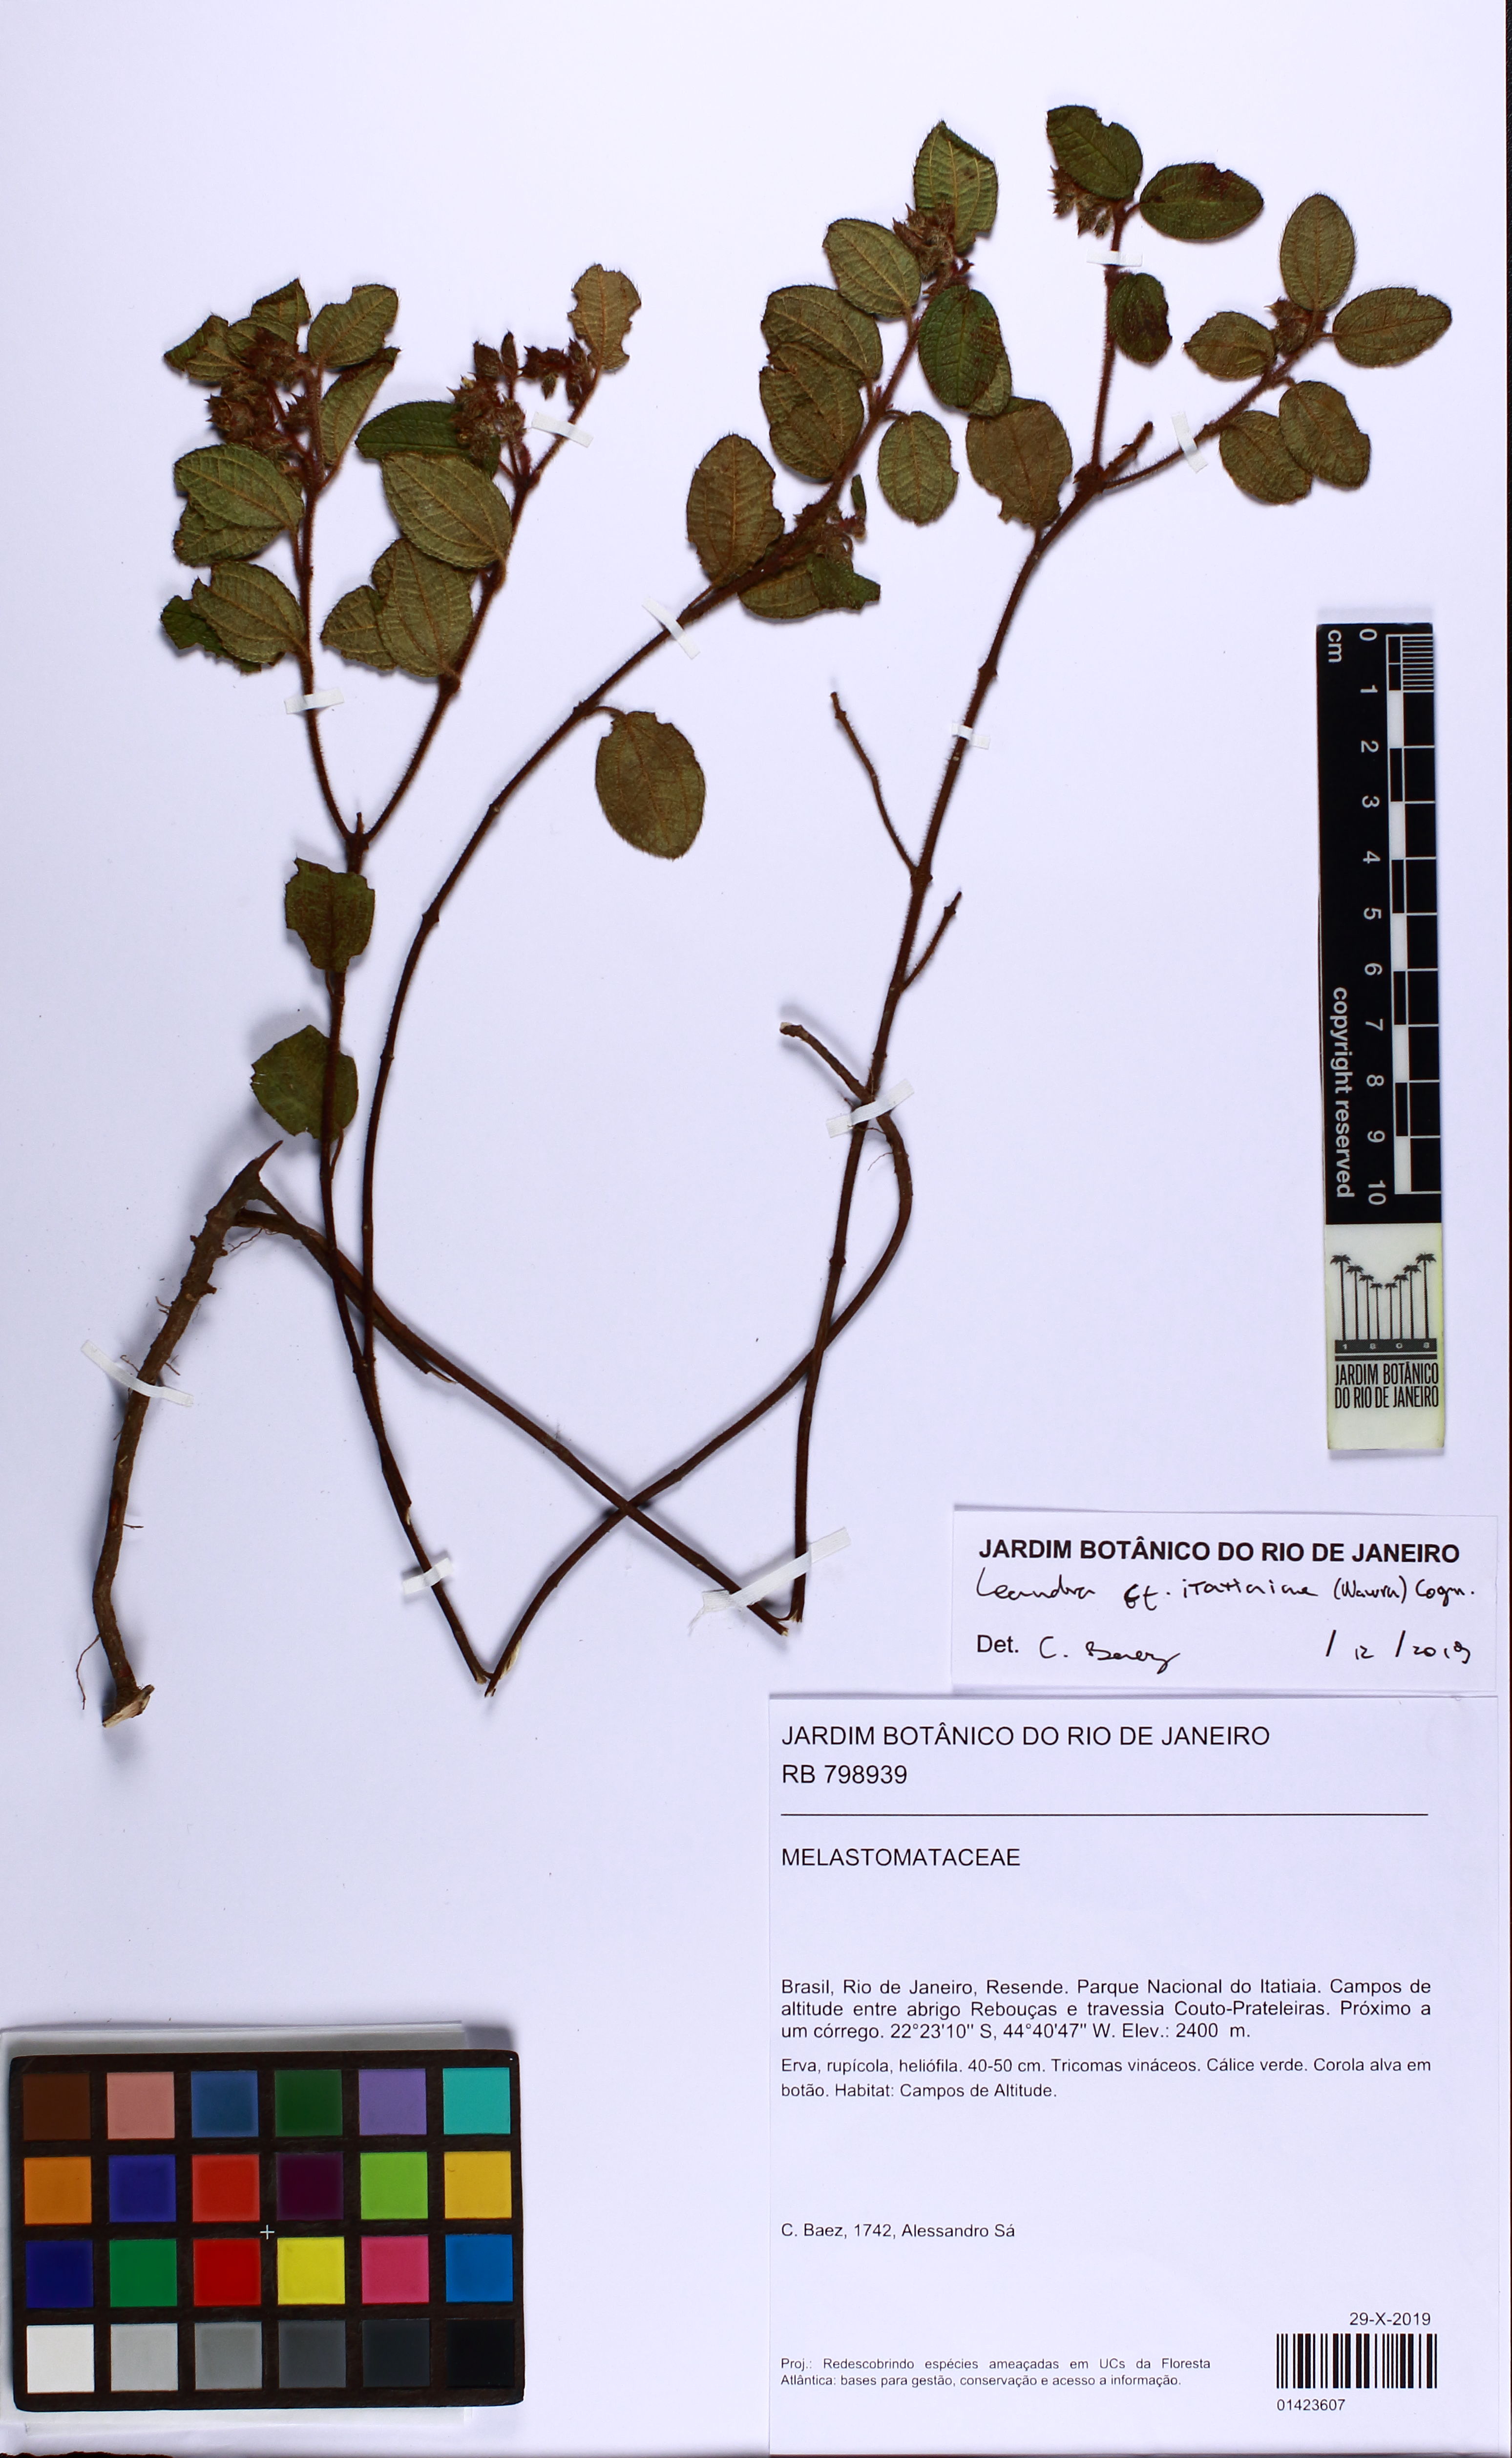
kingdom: Plantae
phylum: Tracheophyta
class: Magnoliopsida
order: Myrtales
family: Melastomataceae
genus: Miconia
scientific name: Miconia itatiaiae
